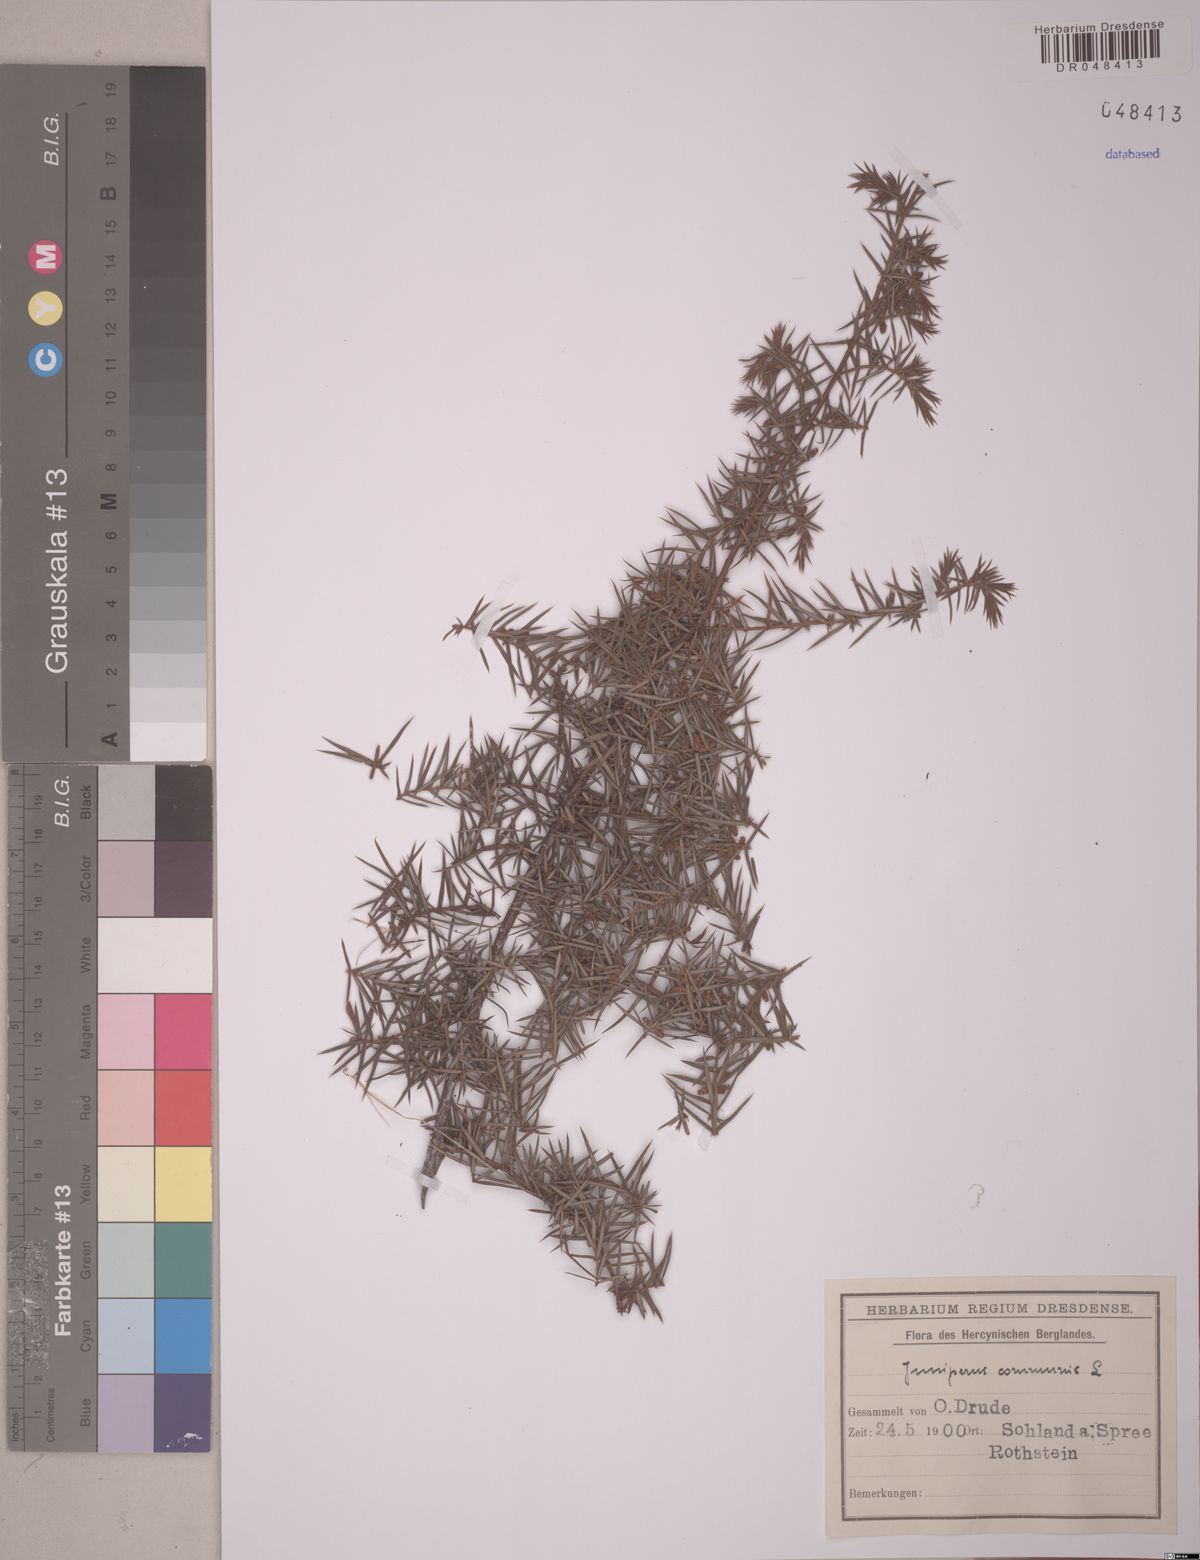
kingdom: Plantae
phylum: Tracheophyta
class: Pinopsida
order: Pinales
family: Cupressaceae
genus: Juniperus
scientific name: Juniperus communis
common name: Common juniper
